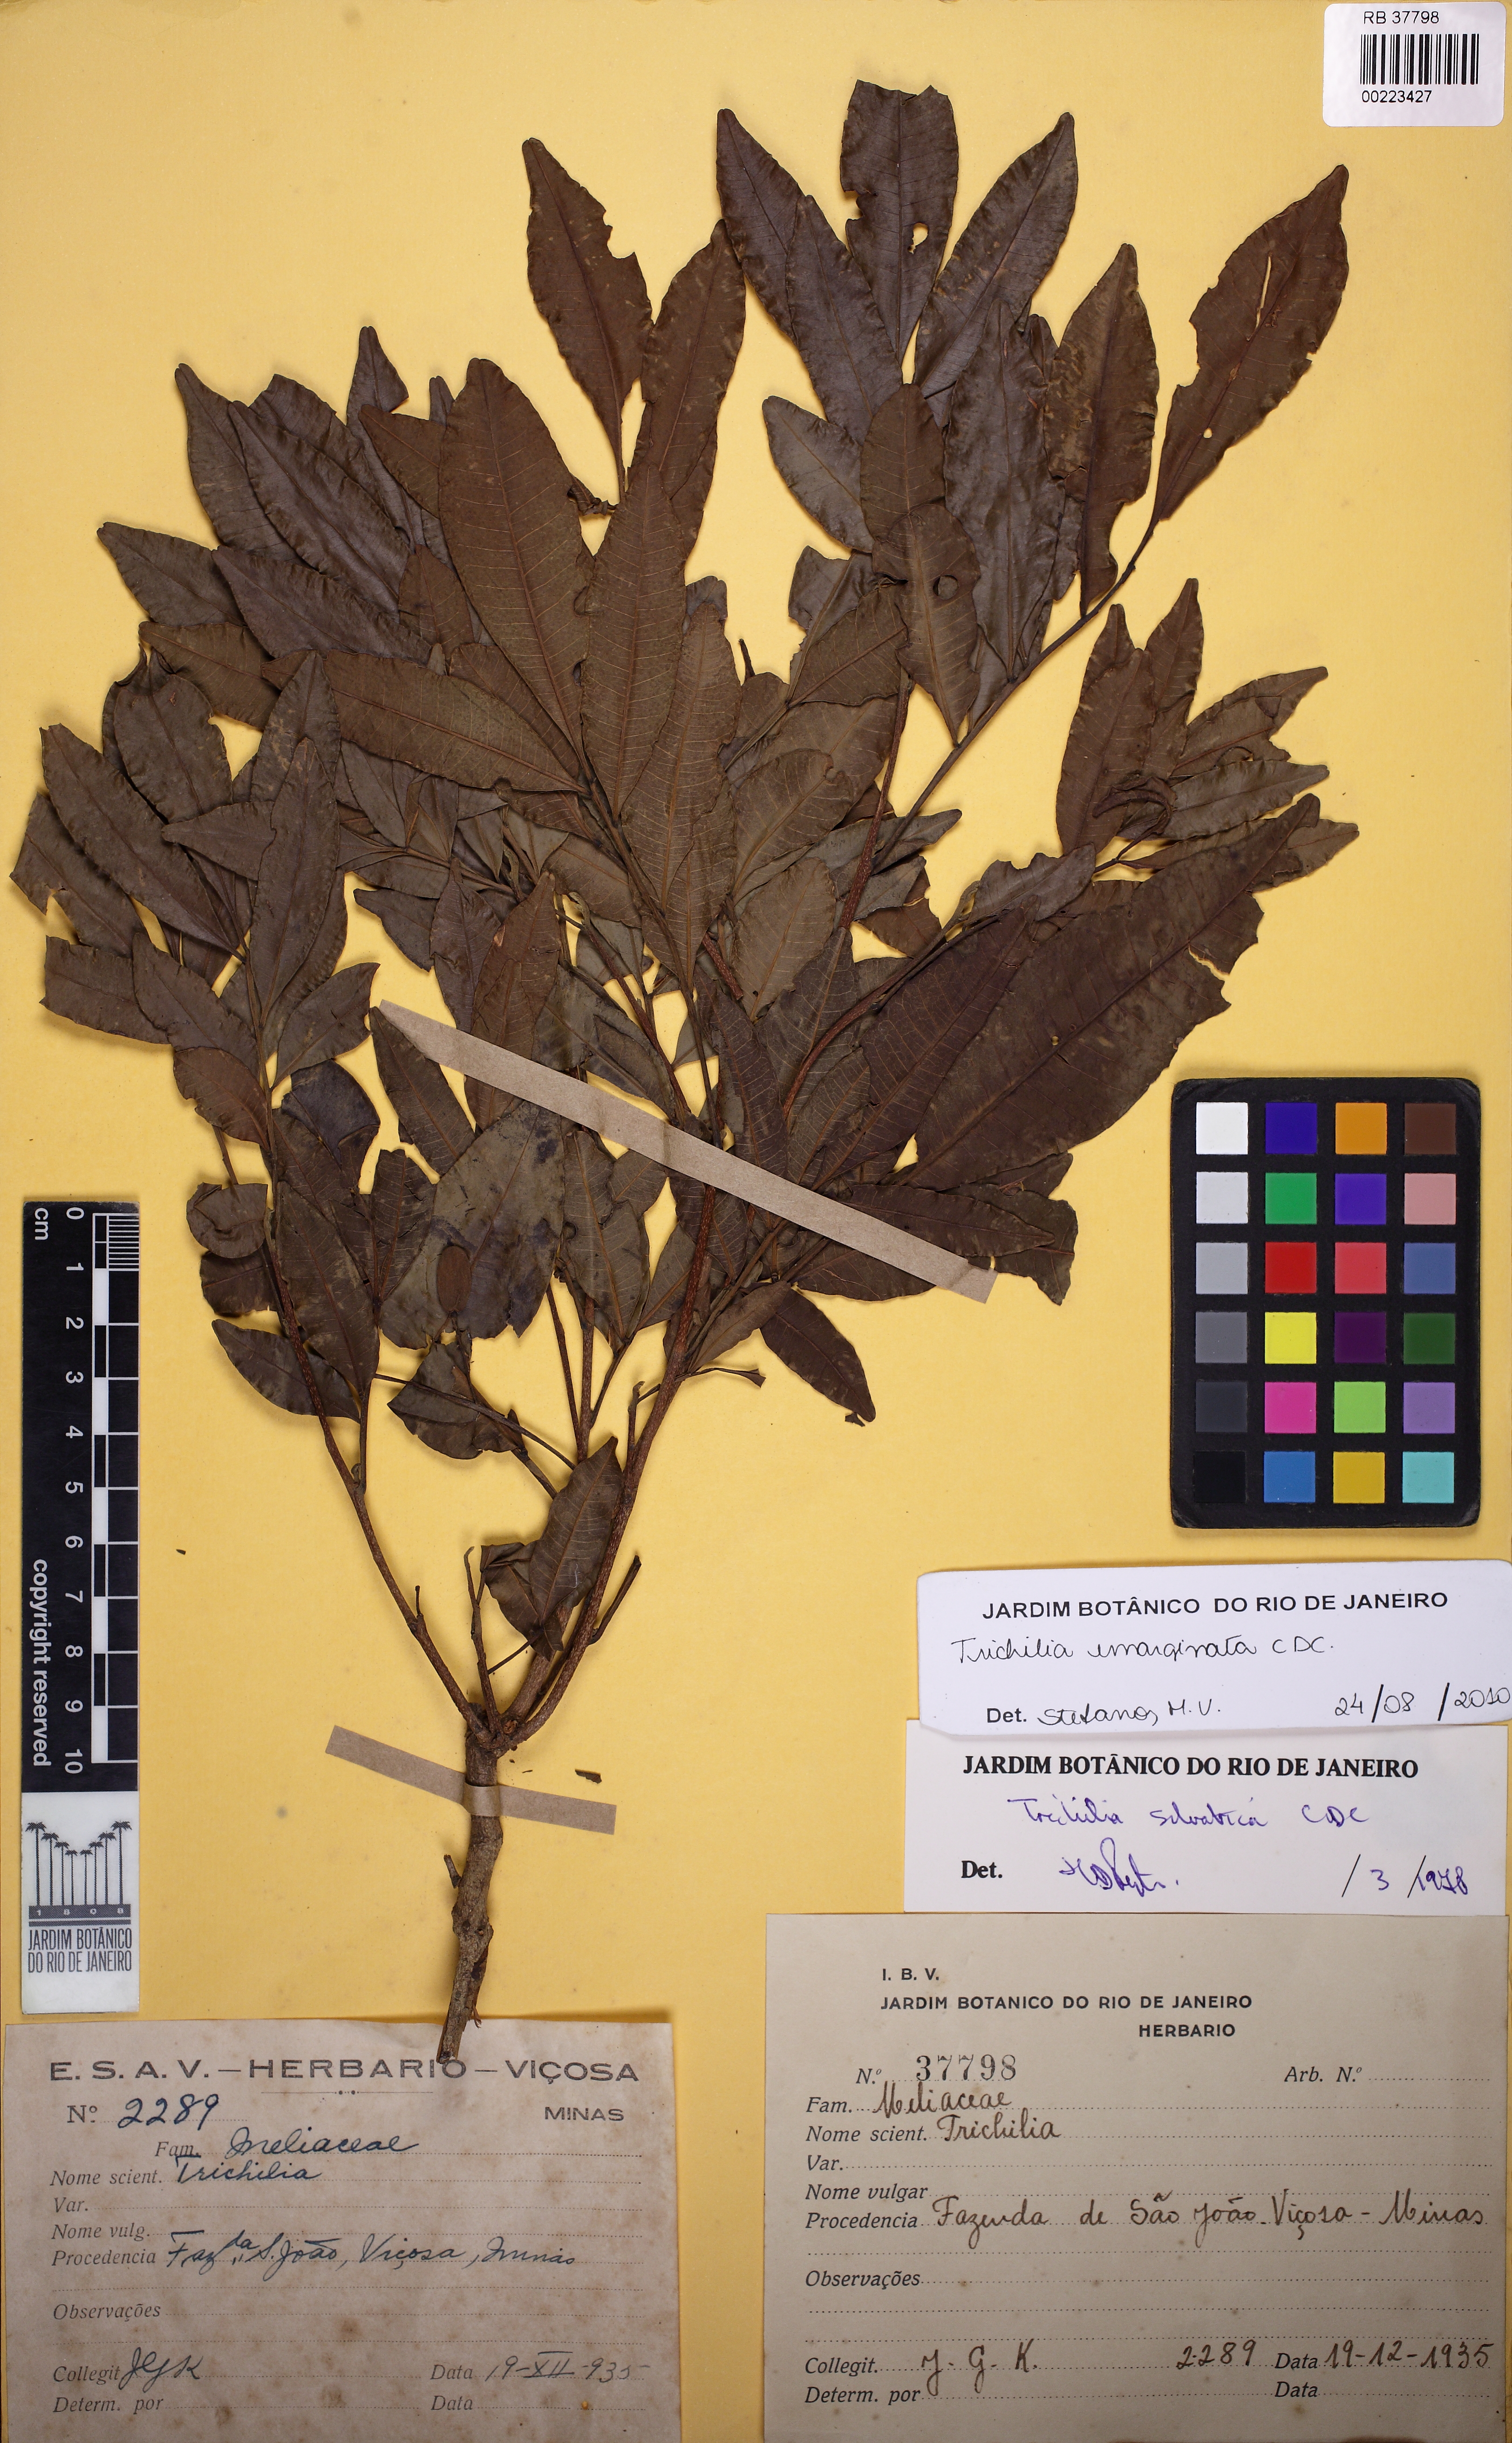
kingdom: Plantae
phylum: Tracheophyta
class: Magnoliopsida
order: Sapindales
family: Meliaceae
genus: Trichilia
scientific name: Trichilia emarginata
